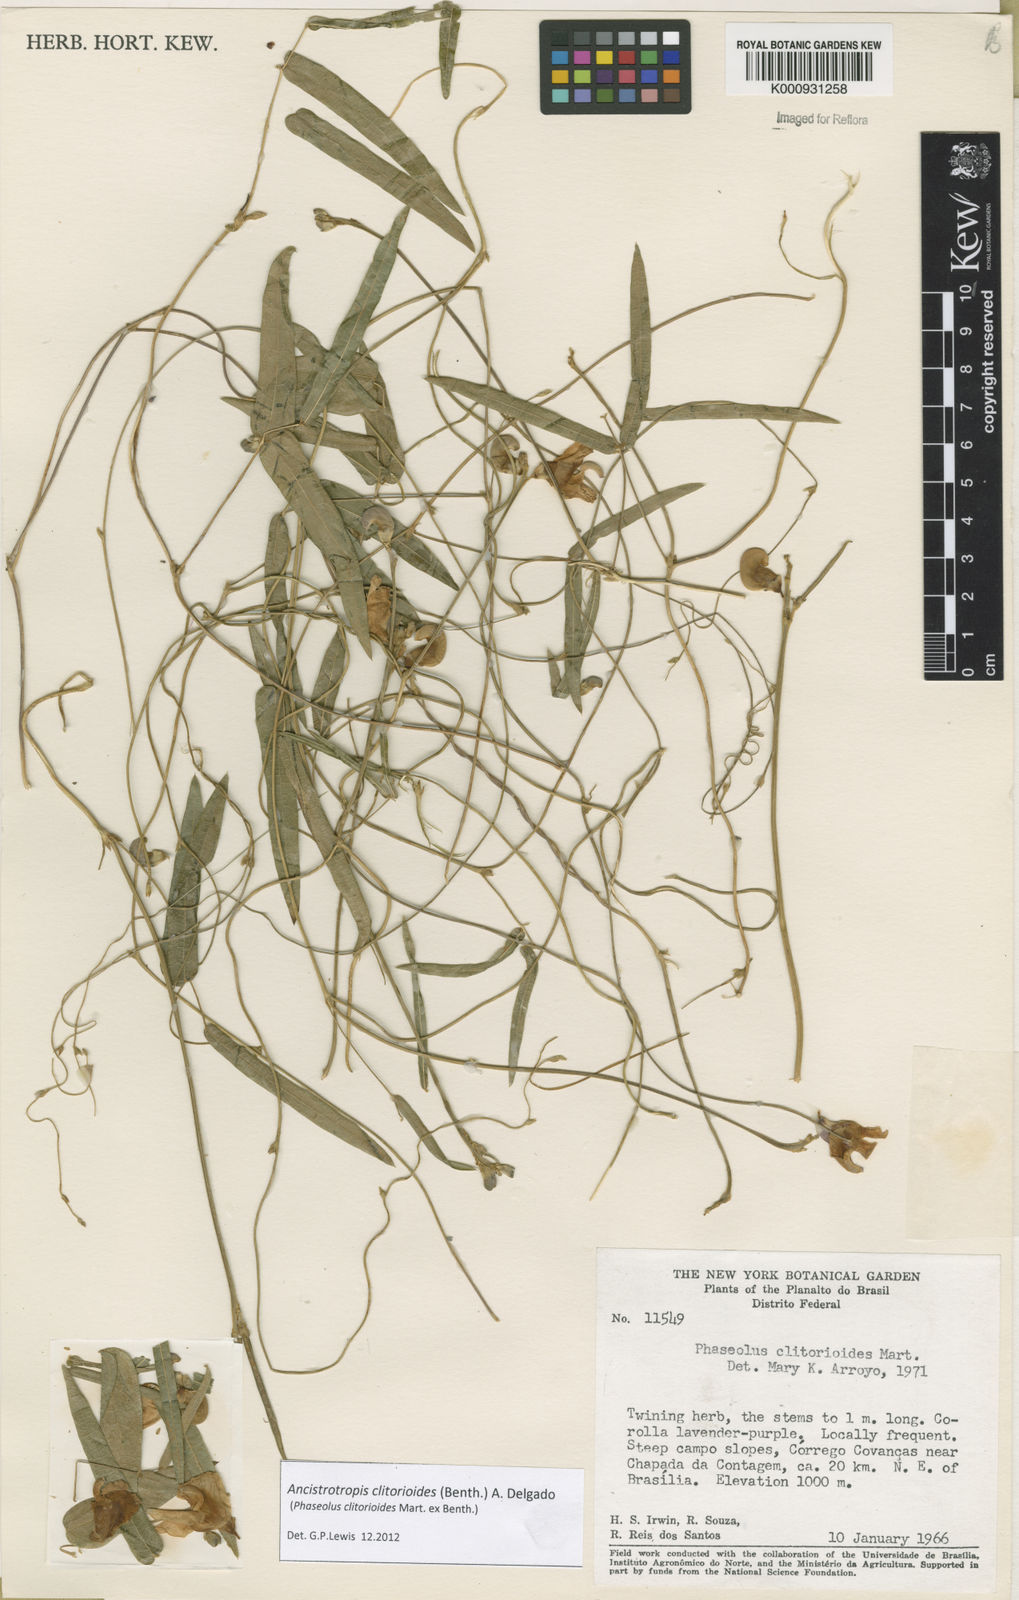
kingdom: Plantae
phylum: Tracheophyta
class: Magnoliopsida
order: Fabales
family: Fabaceae
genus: Ancistrotropis
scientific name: Ancistrotropis clitorioides
